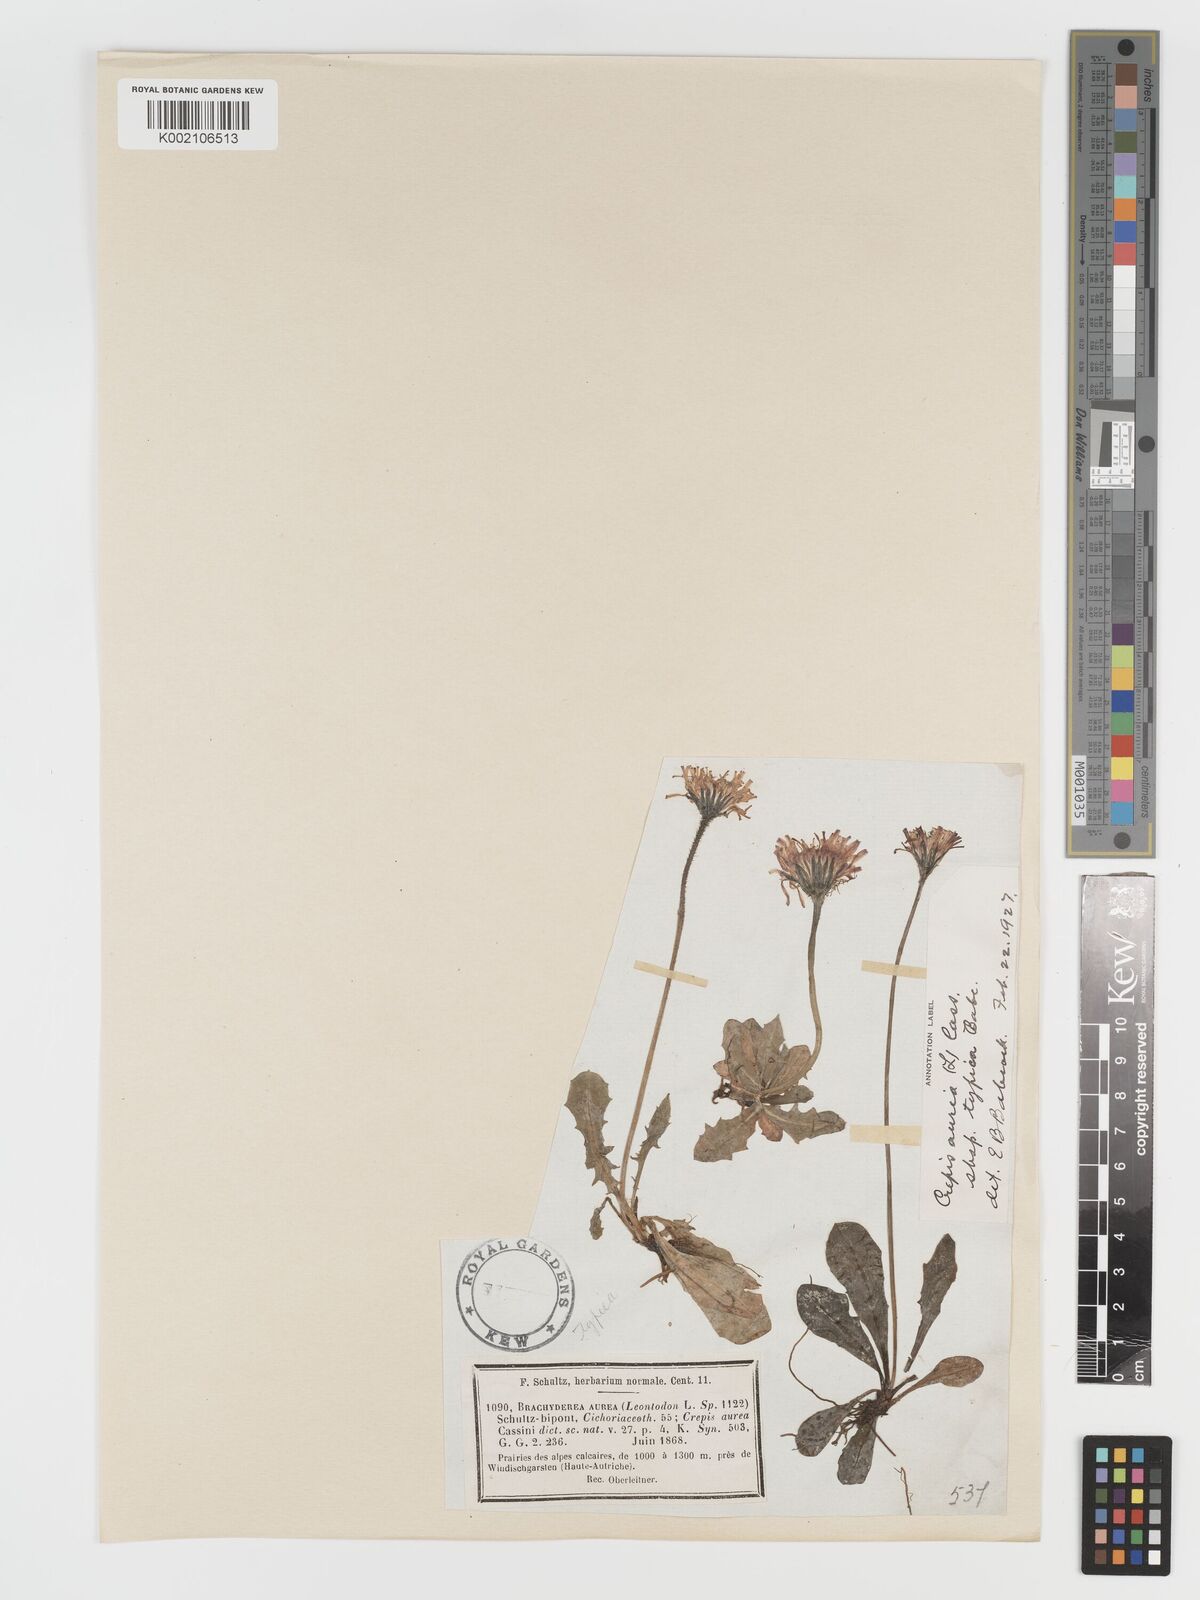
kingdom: Plantae
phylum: Tracheophyta
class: Magnoliopsida
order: Asterales
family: Asteraceae
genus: Crepis
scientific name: Crepis aurea
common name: Golden hawk's-beard
